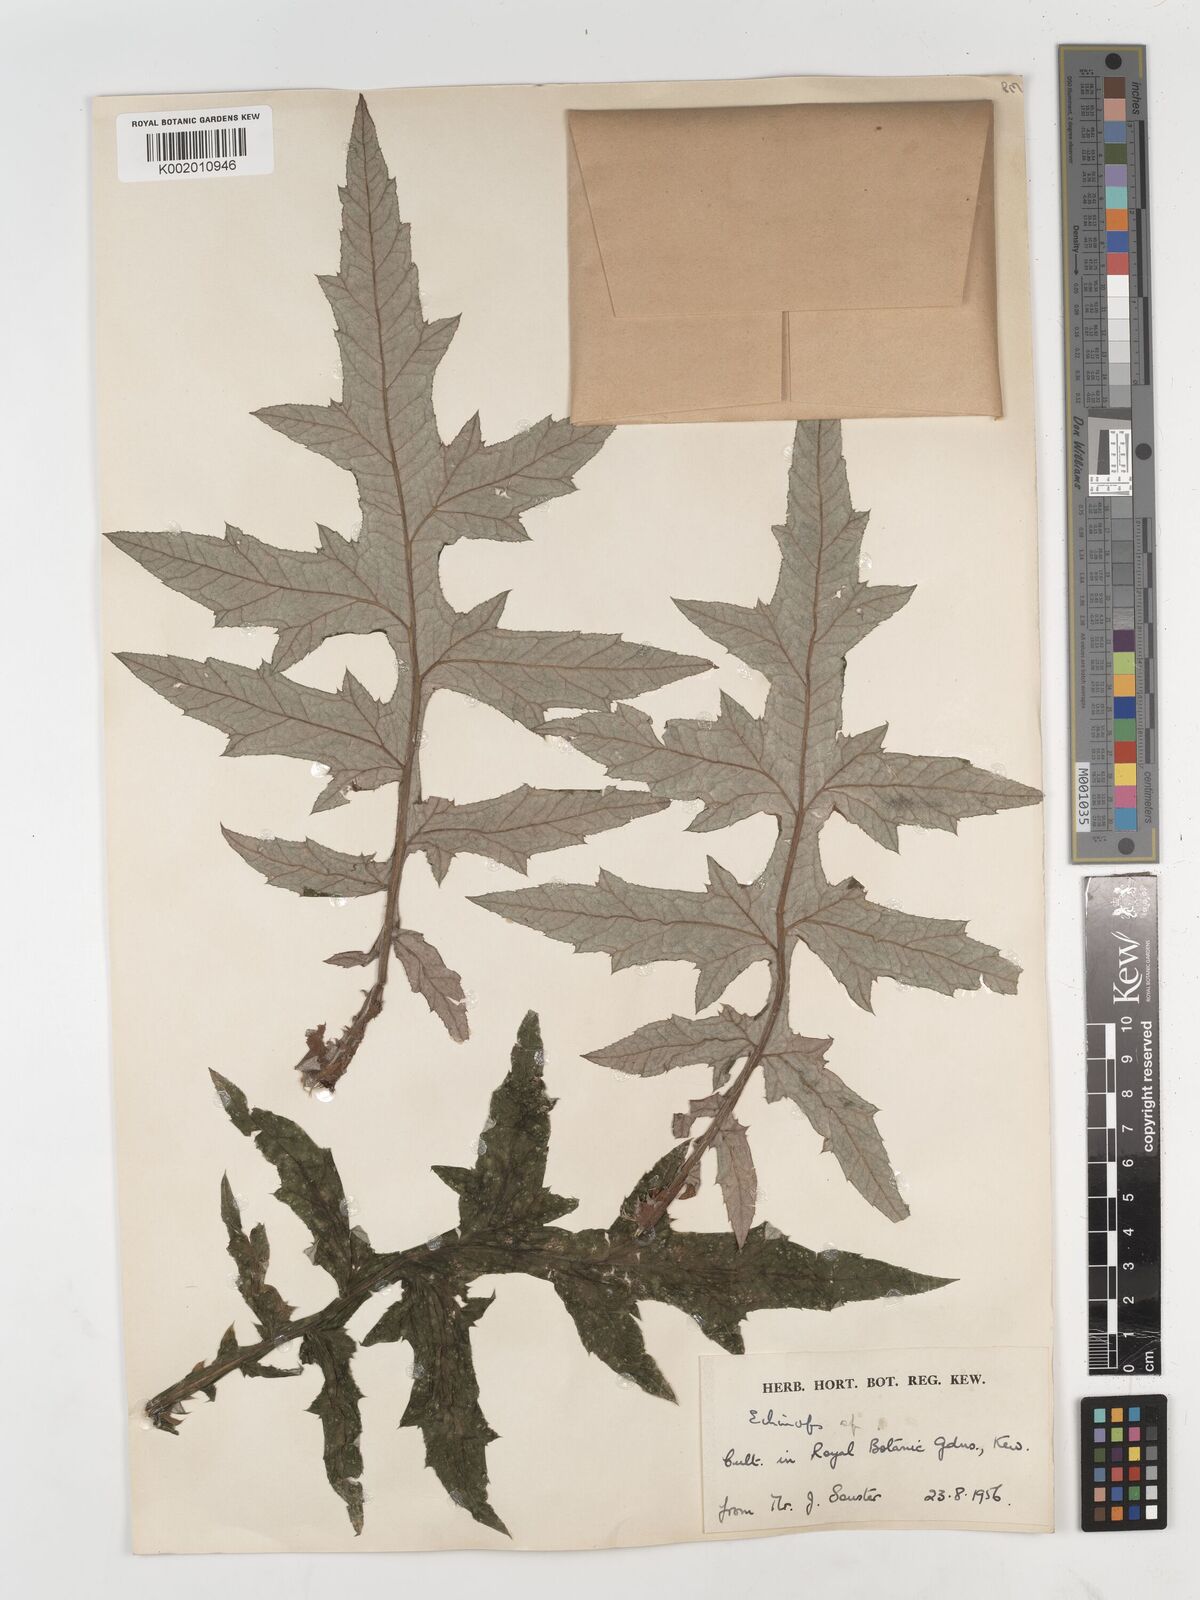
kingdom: Plantae
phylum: Tracheophyta
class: Magnoliopsida
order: Asterales
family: Asteraceae
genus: Echinops
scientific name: Echinops
